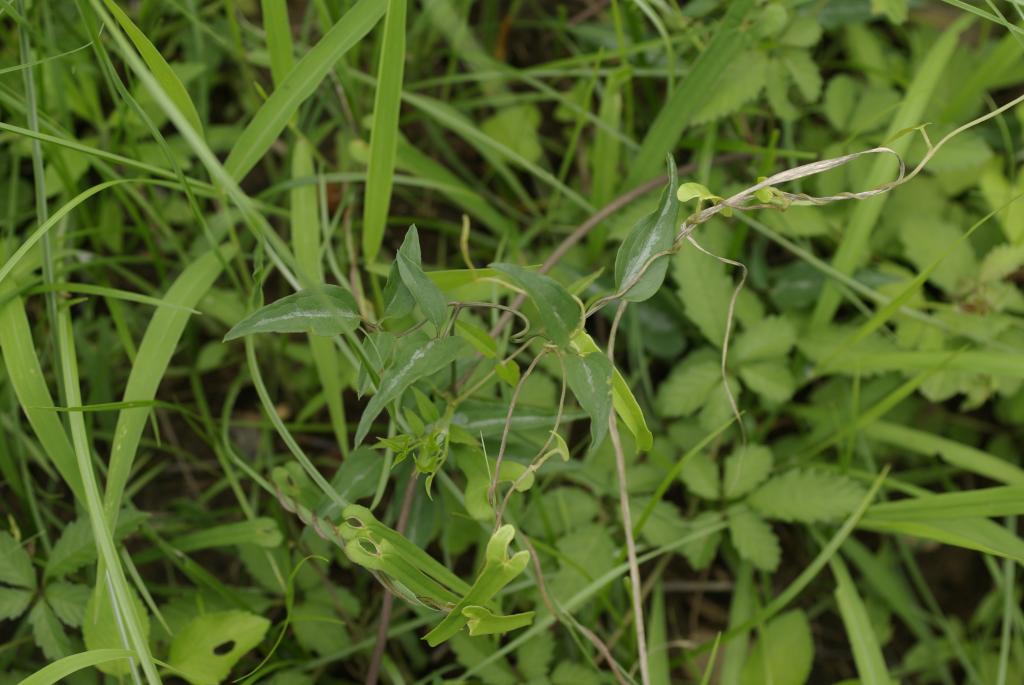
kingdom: Plantae
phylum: Tracheophyta
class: Magnoliopsida
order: Ranunculales
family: Ranunculaceae
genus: Clematis
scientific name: Clematis chinensis
